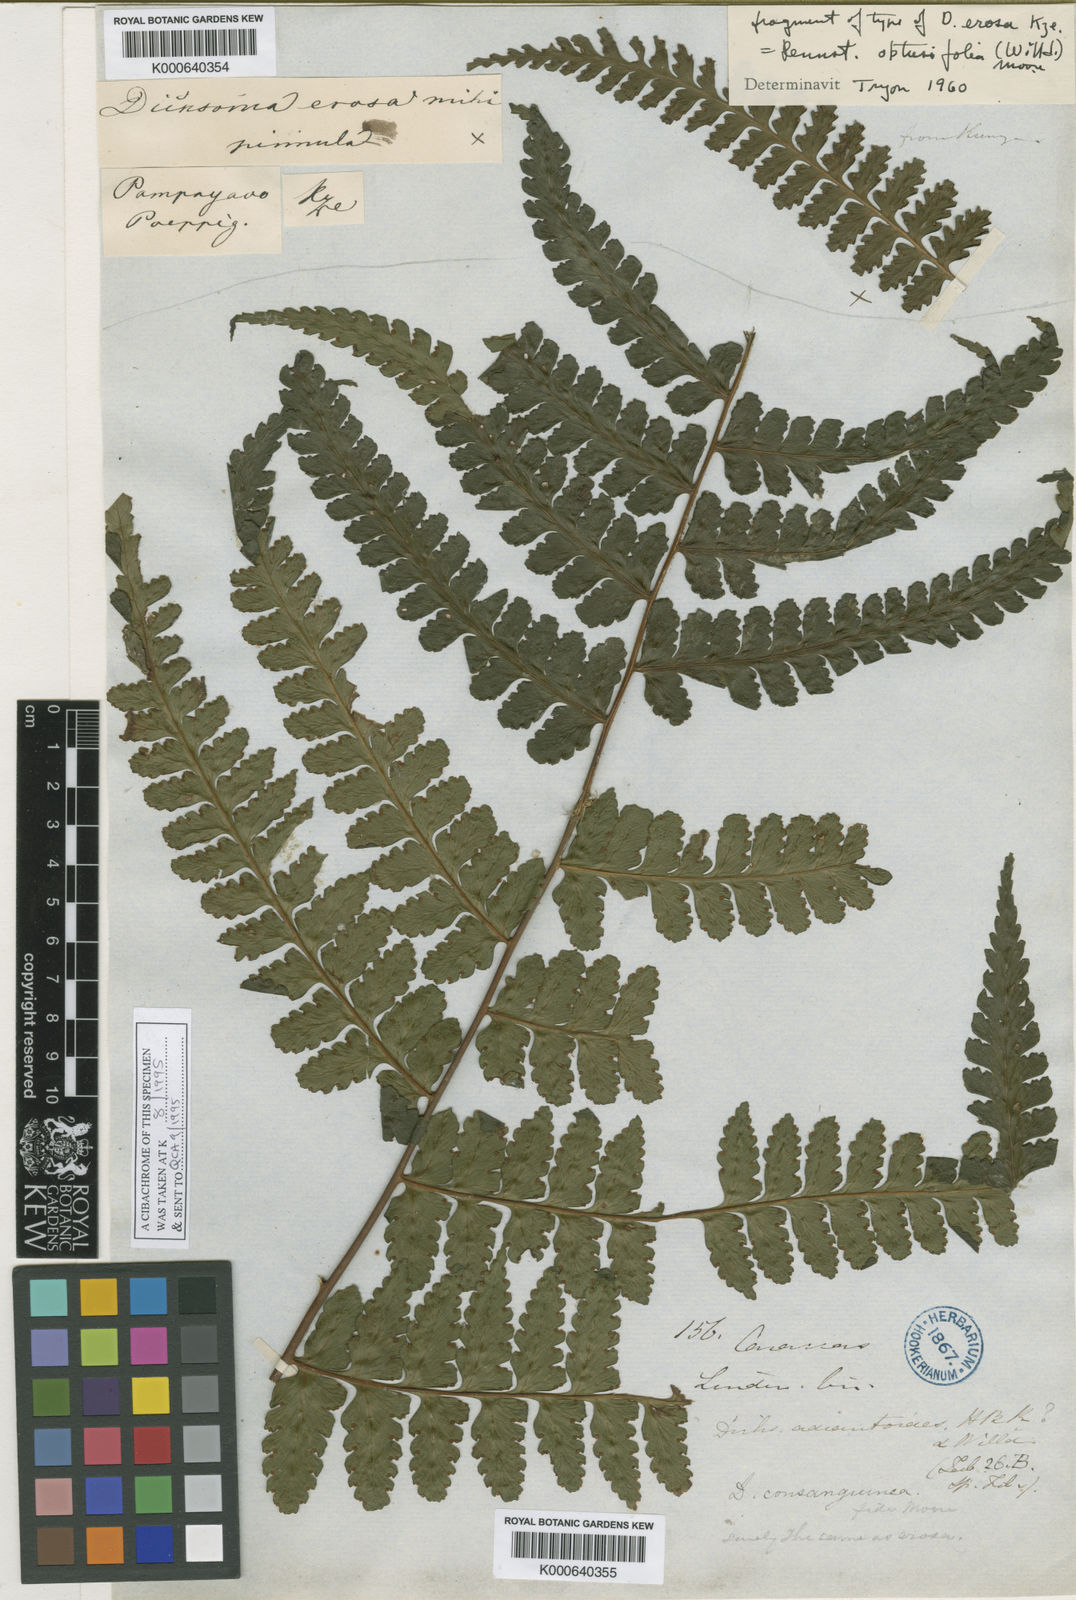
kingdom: Plantae
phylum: Tracheophyta
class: Polypodiopsida
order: Polypodiales
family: Dennstaedtiaceae
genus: Dennstaedtia
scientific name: Dennstaedtia obtusifolia
